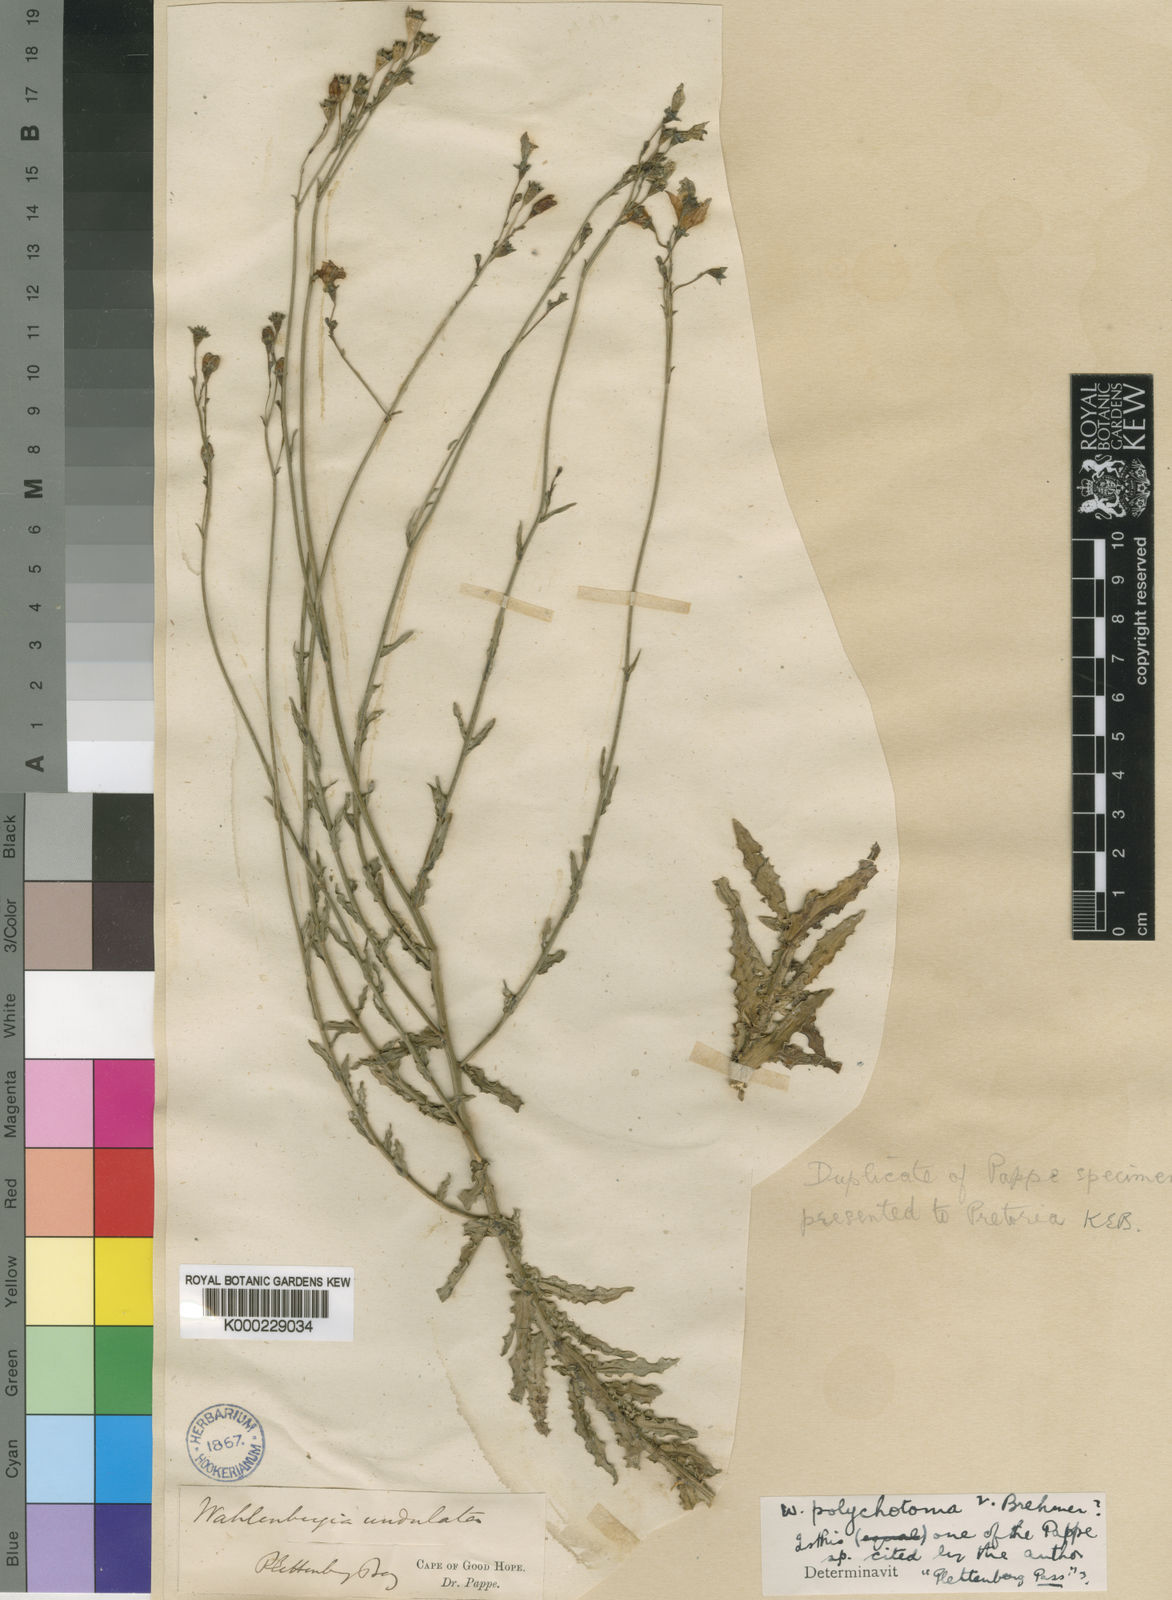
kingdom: Plantae
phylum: Tracheophyta
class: Magnoliopsida
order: Asterales
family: Campanulaceae
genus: Wahlenbergia
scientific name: Wahlenbergia undulata
